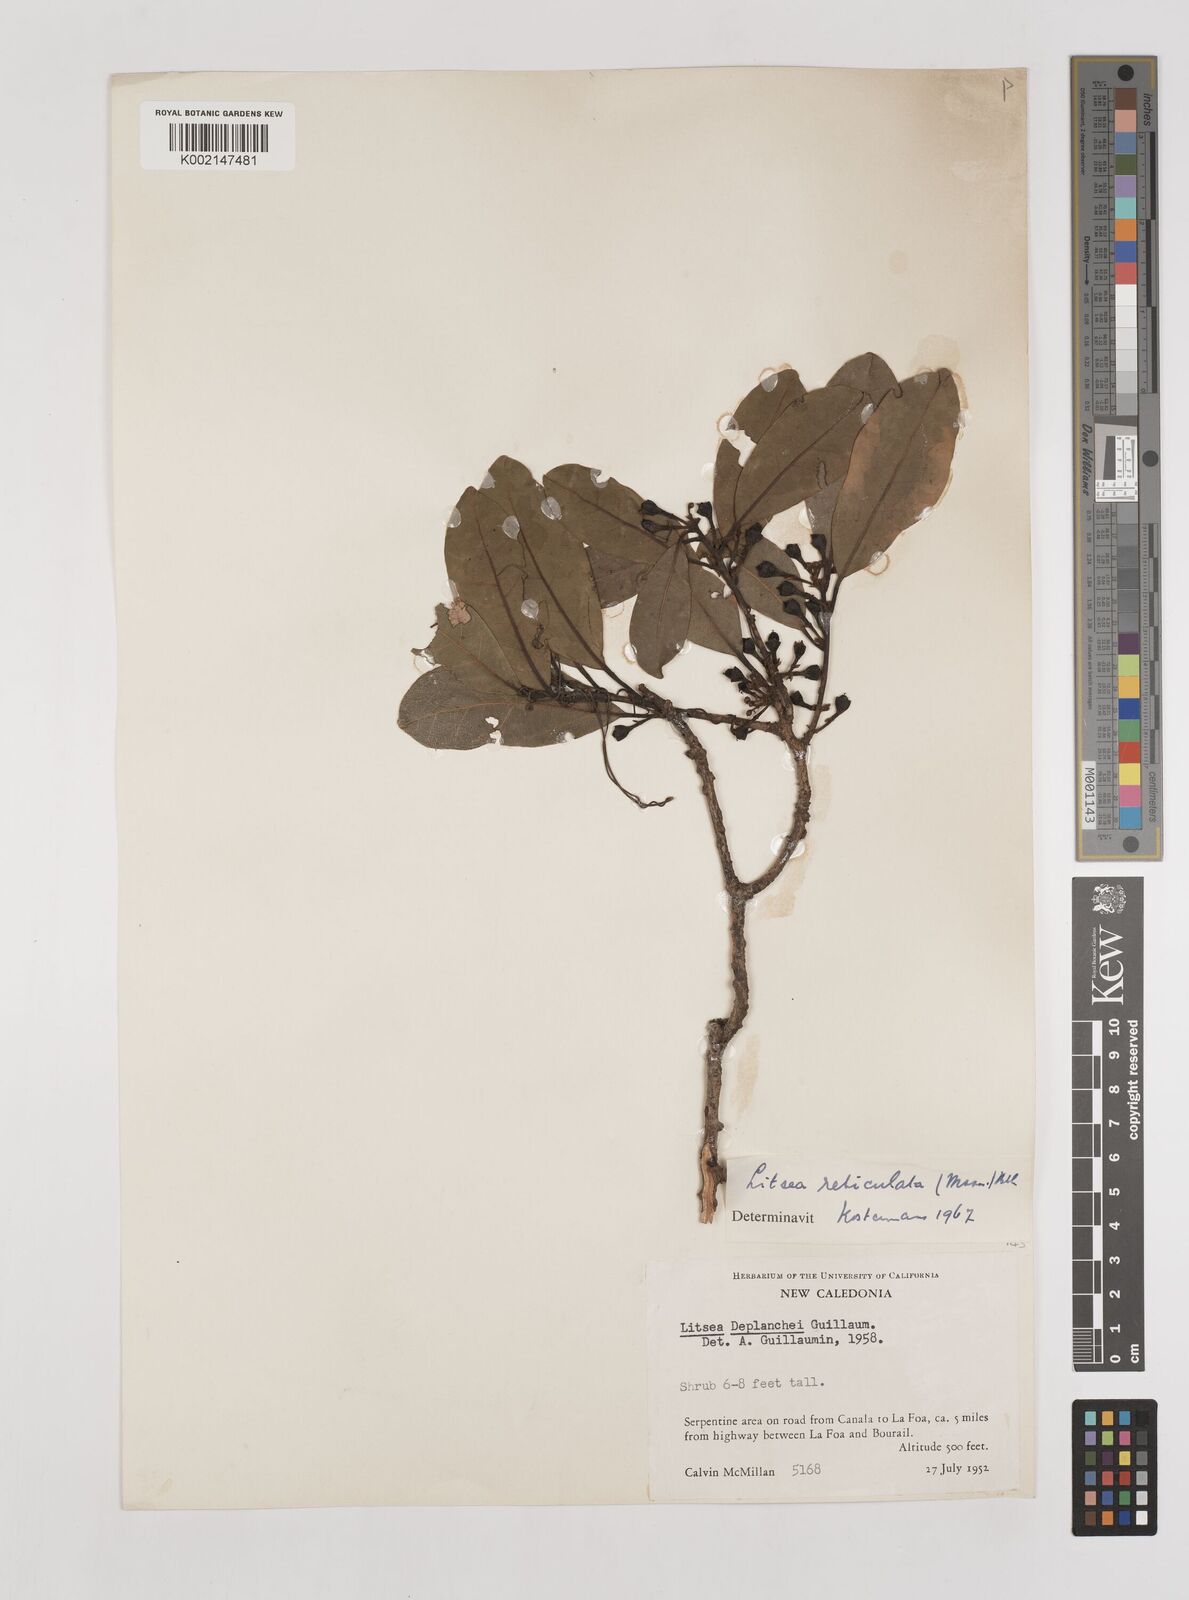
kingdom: Plantae
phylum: Tracheophyta
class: Magnoliopsida
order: Laurales
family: Lauraceae
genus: Litsea
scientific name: Litsea reticulata
